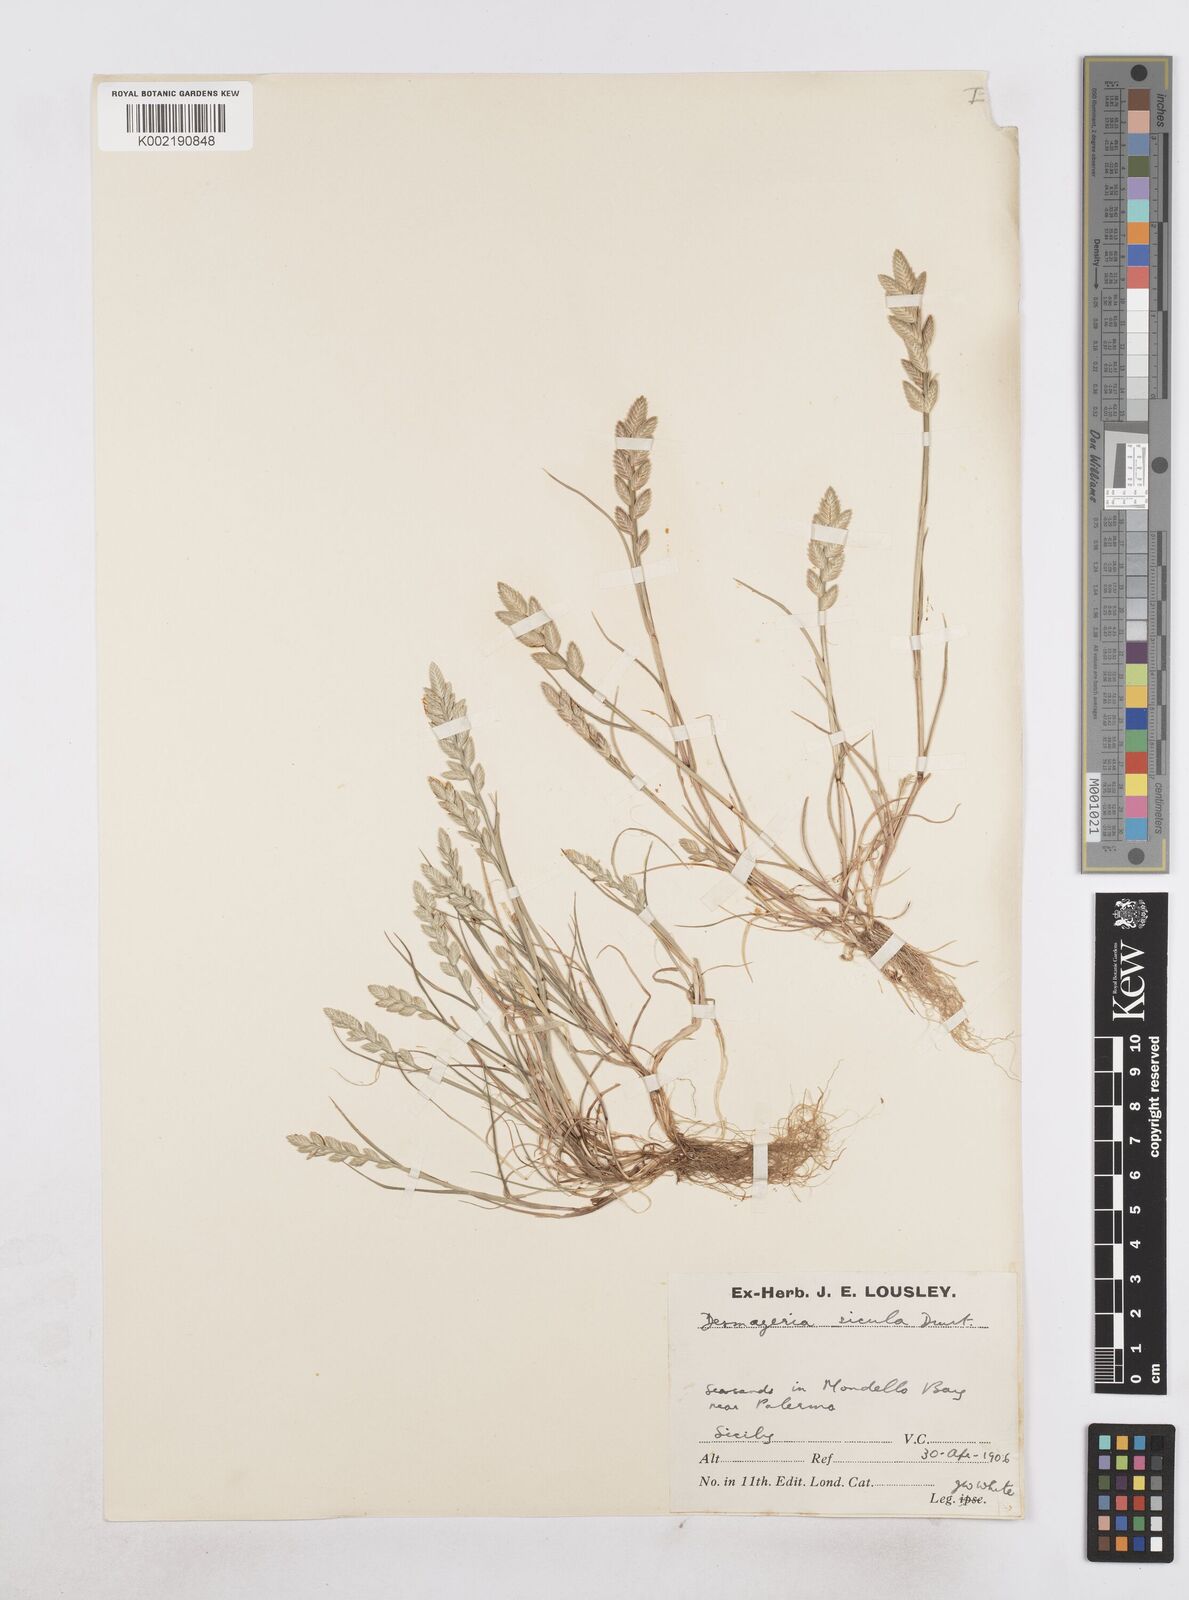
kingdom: Plantae
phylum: Tracheophyta
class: Liliopsida
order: Poales
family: Poaceae
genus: Desmazeria
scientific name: Desmazeria sicula
